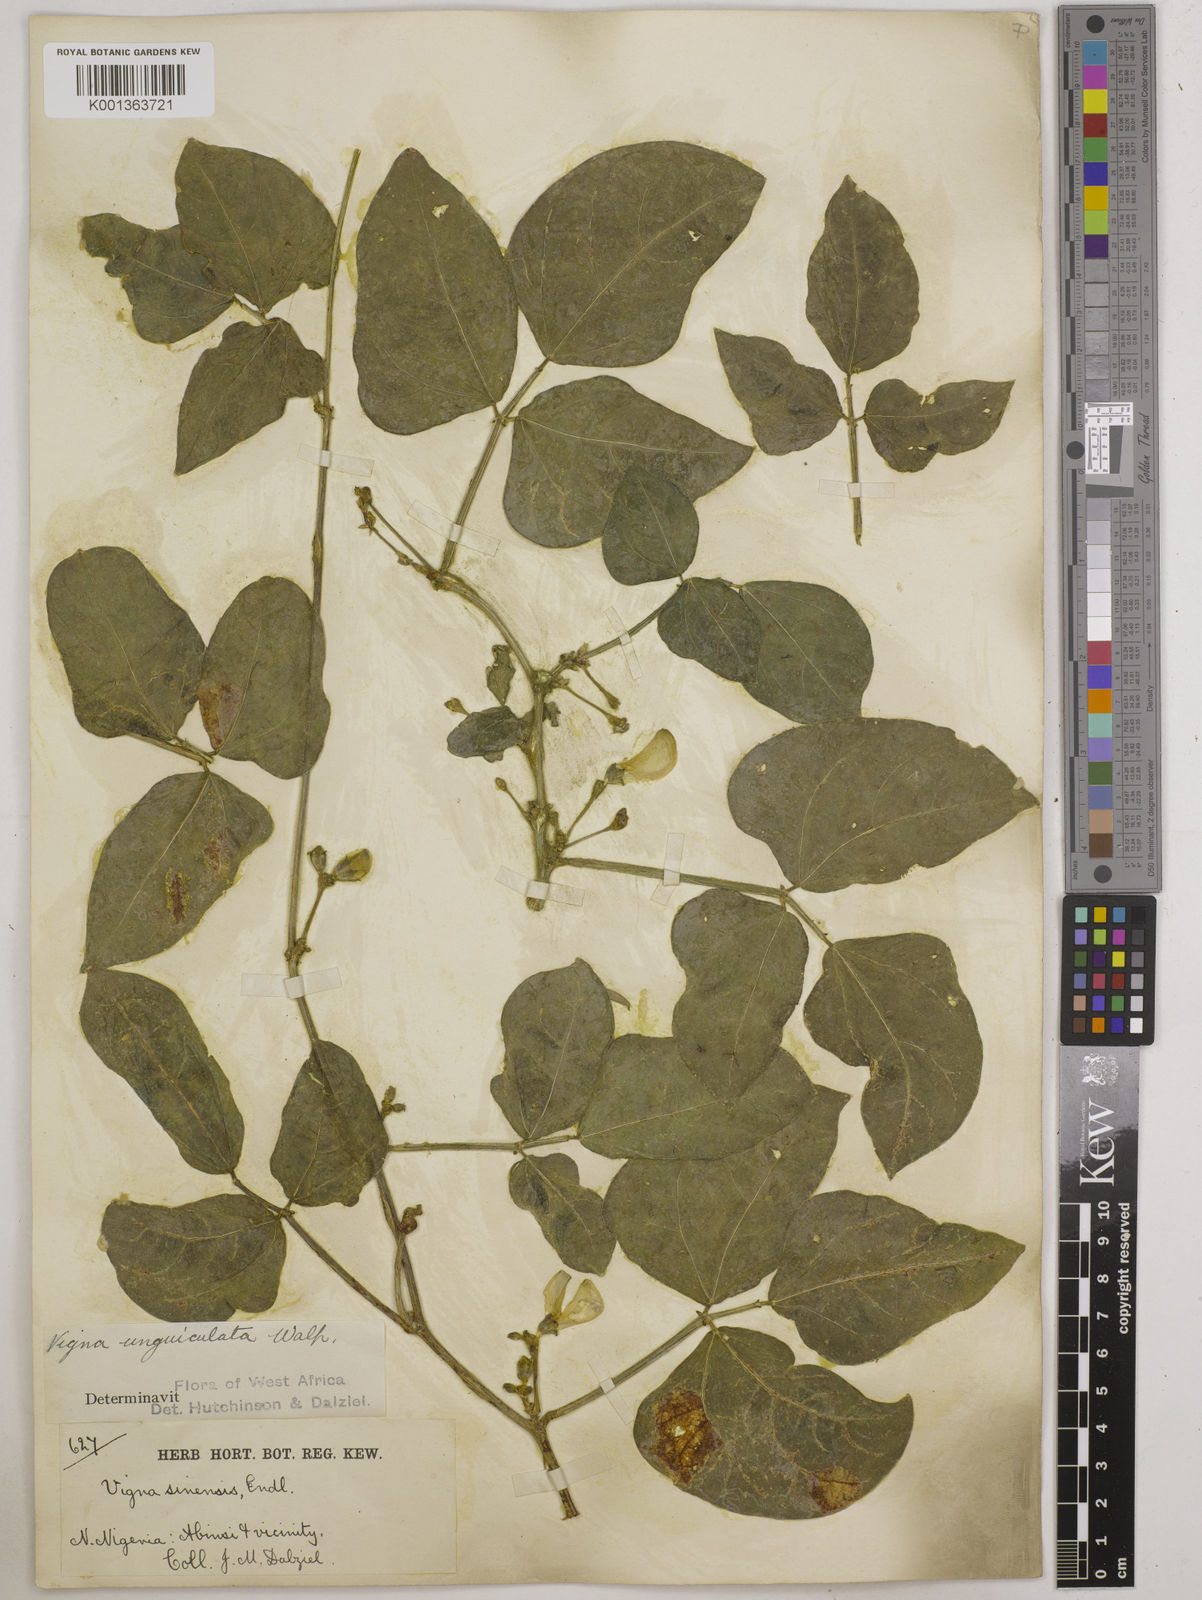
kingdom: Plantae
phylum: Tracheophyta
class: Magnoliopsida
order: Fabales
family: Fabaceae
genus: Vigna
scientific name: Vigna unguiculata
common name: Cowpea
